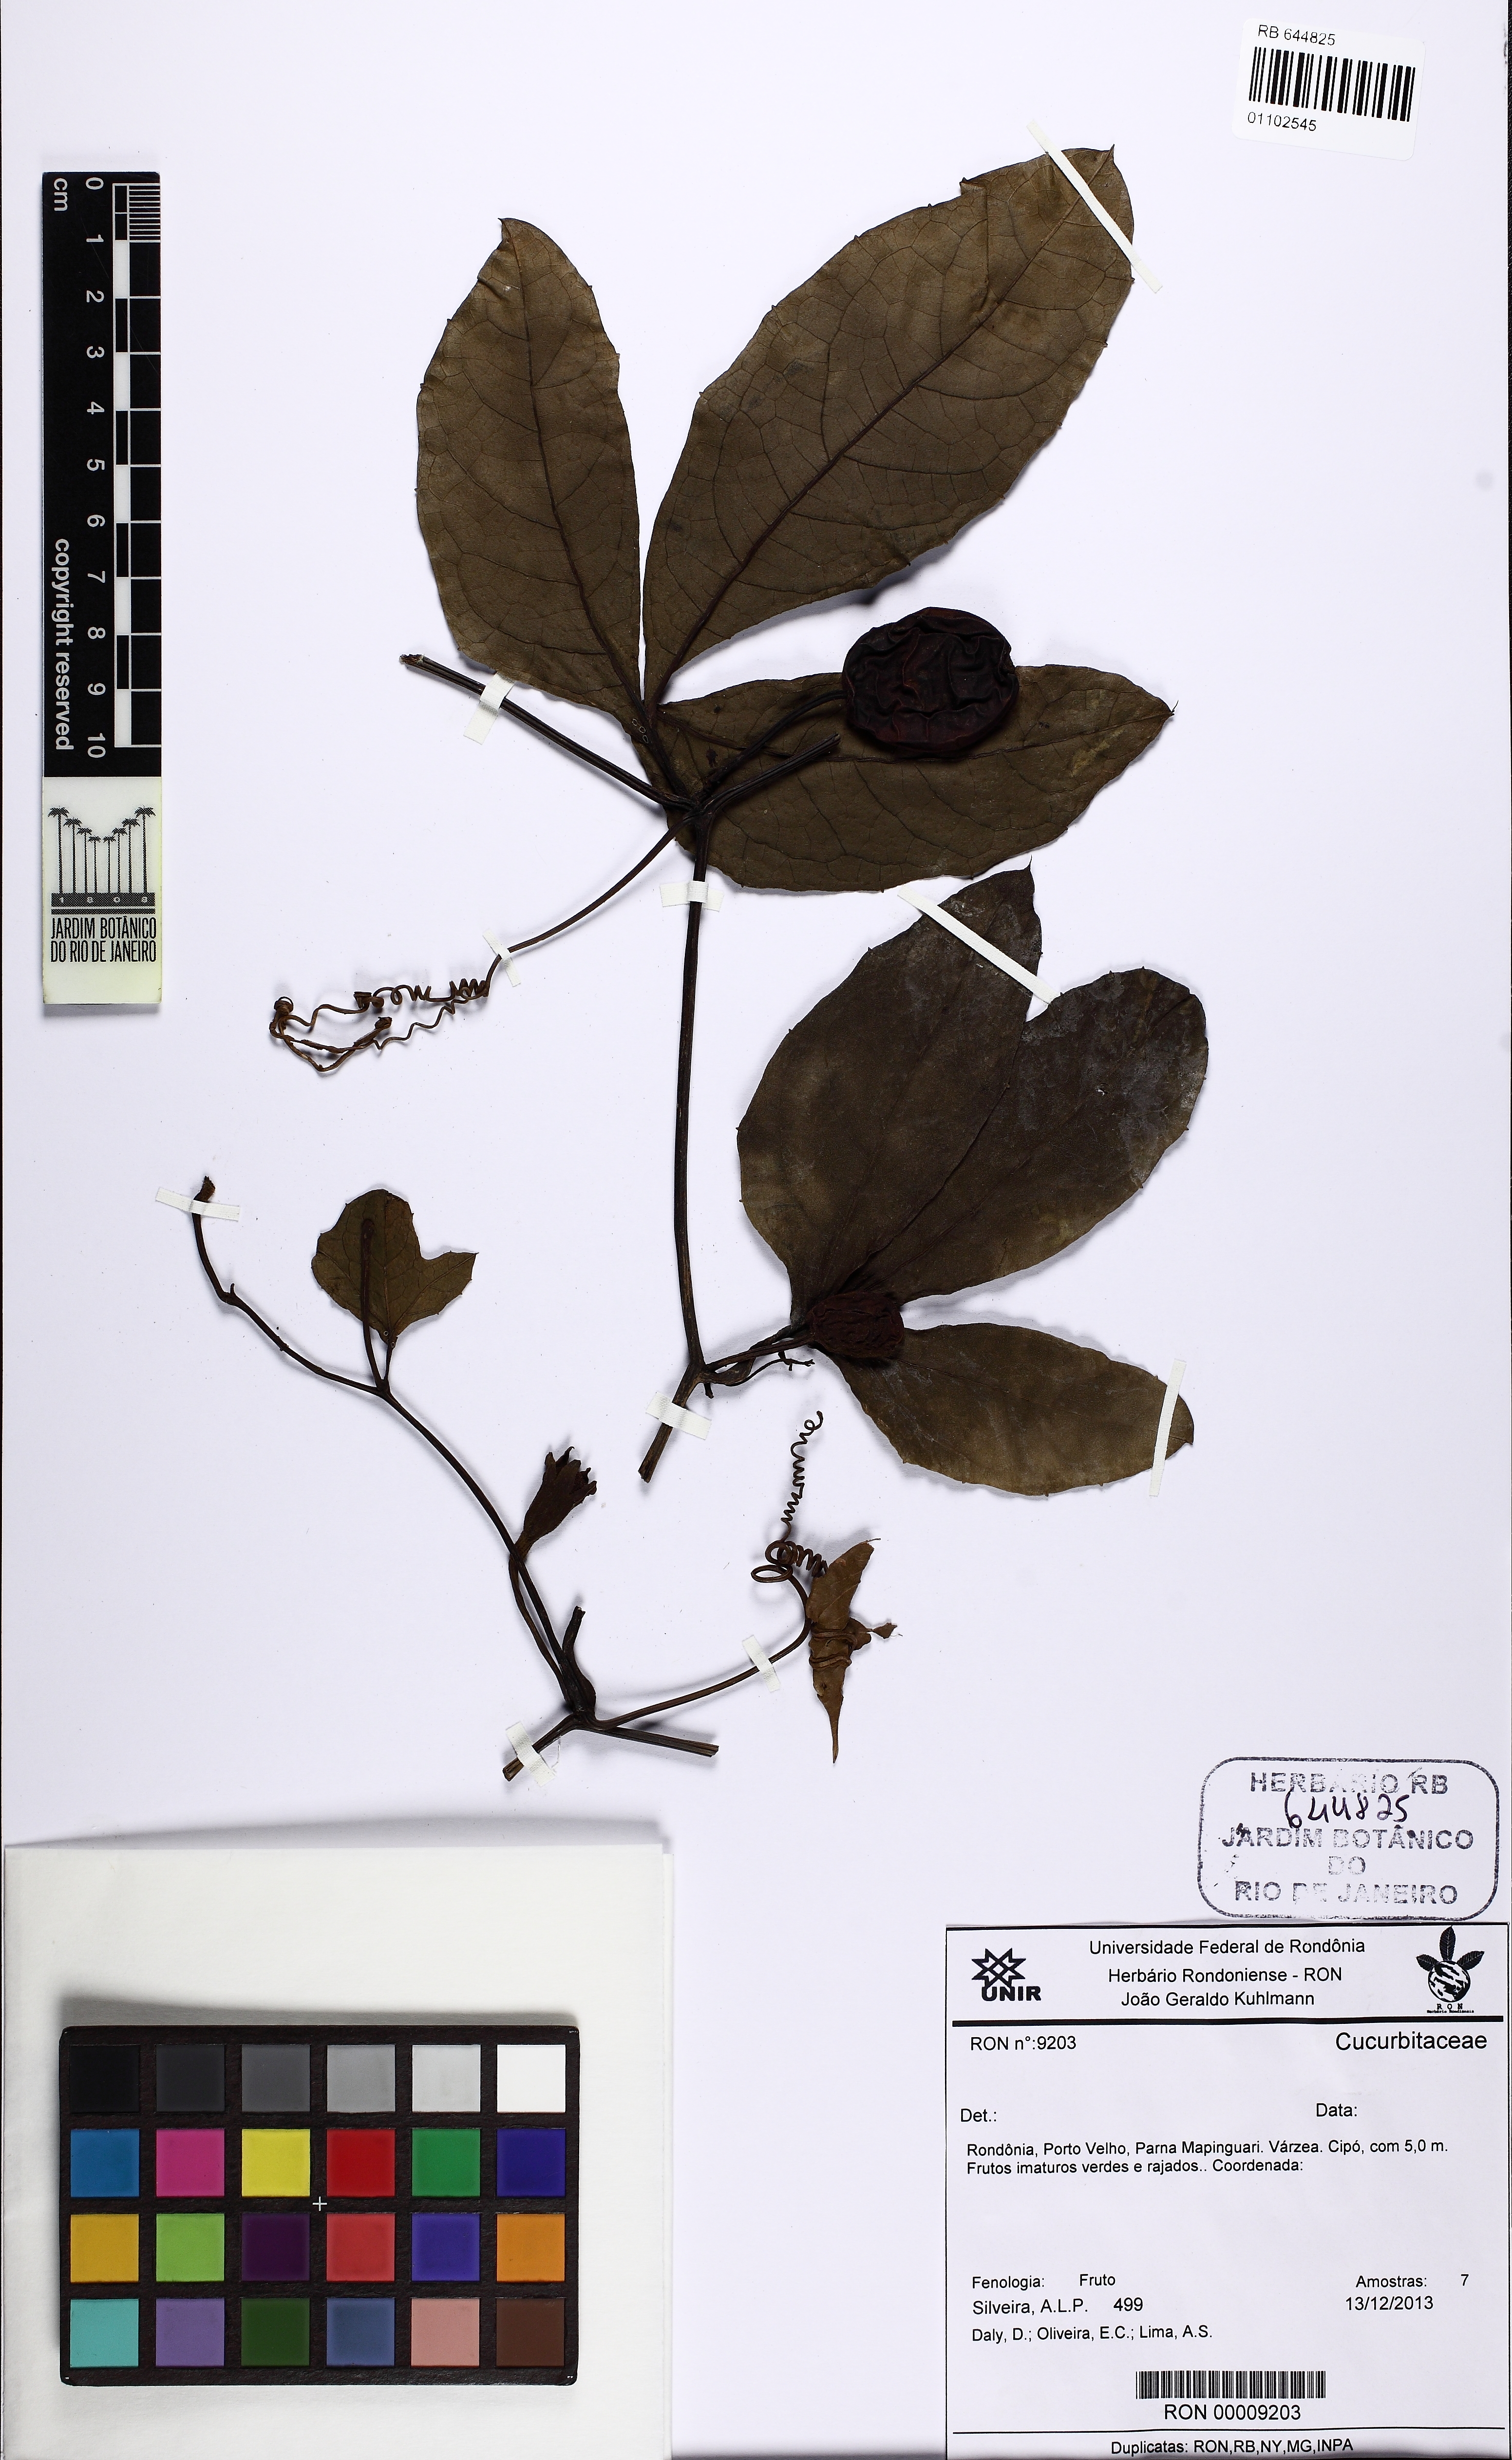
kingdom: Plantae
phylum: Tracheophyta
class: Magnoliopsida
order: Cucurbitales
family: Cucurbitaceae
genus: Cayaponia
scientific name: Cayaponia
